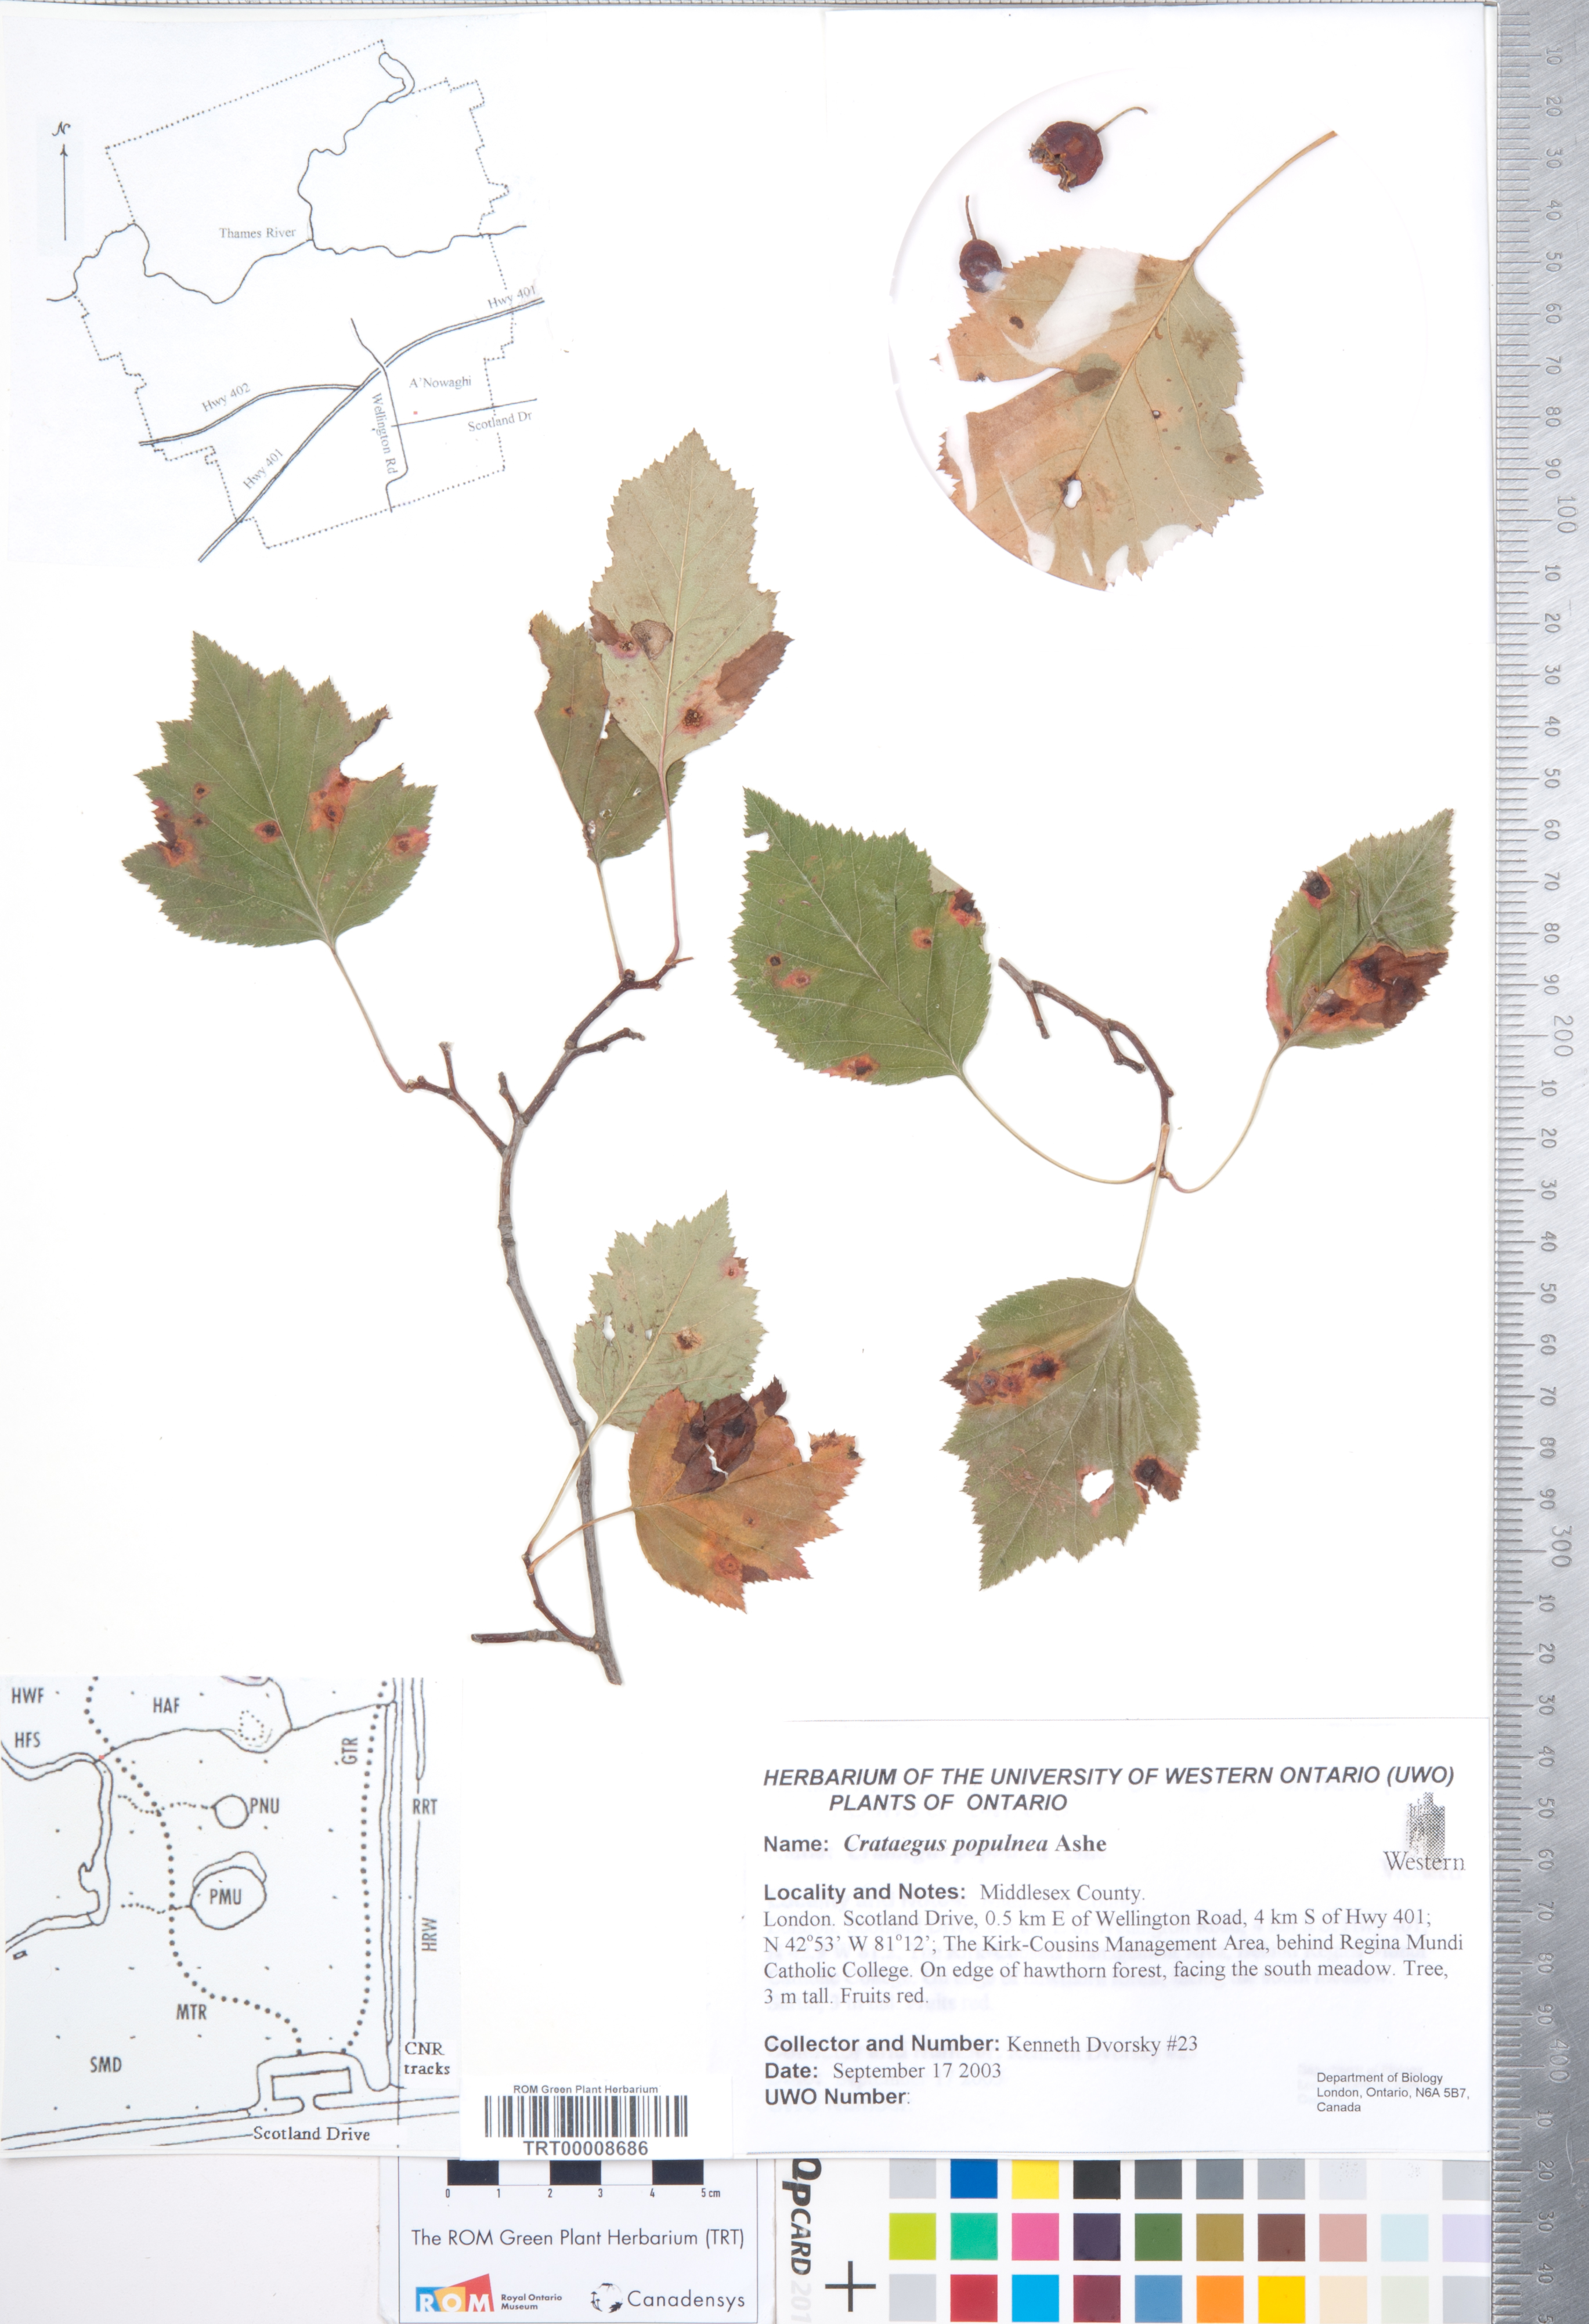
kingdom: Plantae
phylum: Tracheophyta
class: Magnoliopsida
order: Rosales
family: Rosaceae
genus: Crataegus
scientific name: Crataegus populnea
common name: Adorned hawthorn
